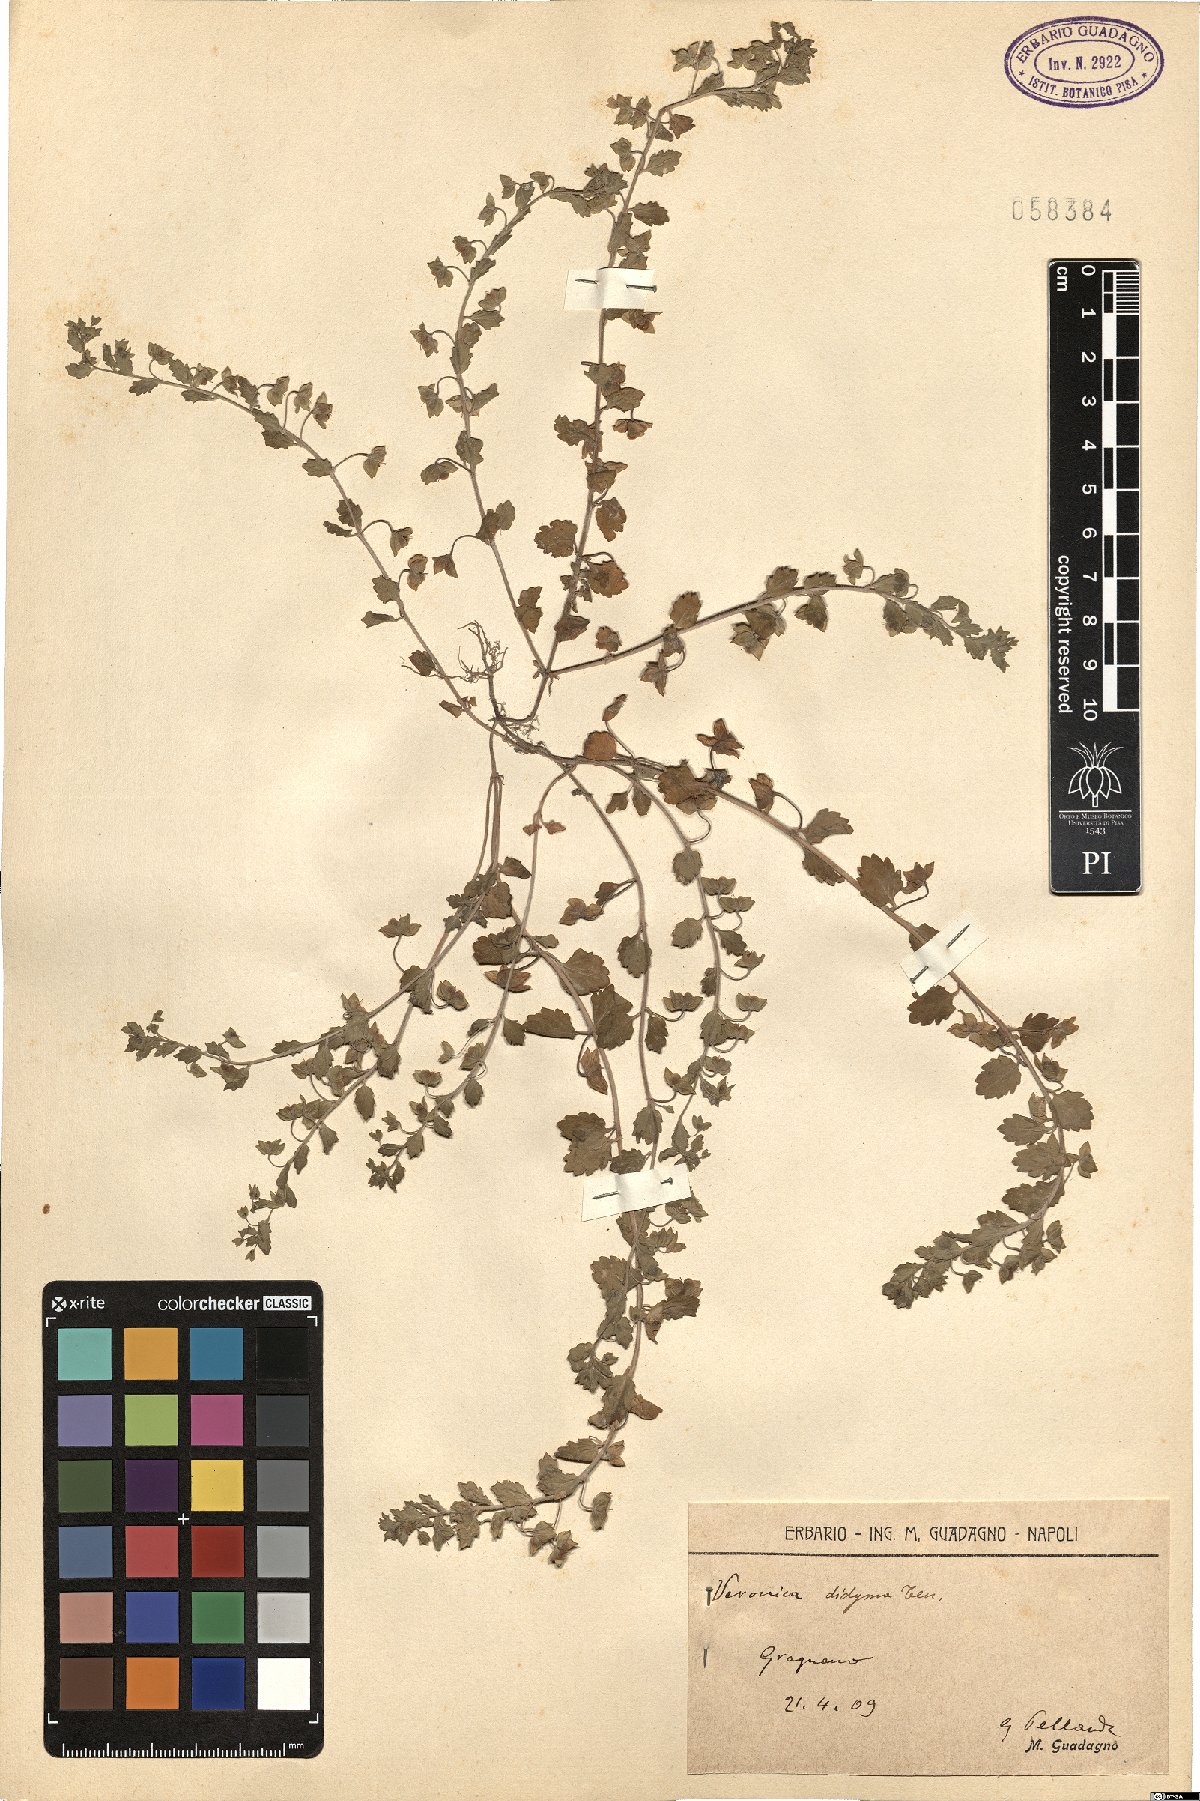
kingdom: Plantae
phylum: Tracheophyta
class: Magnoliopsida
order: Lamiales
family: Plantaginaceae
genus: Veronica
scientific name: Veronica polita
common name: Grey field-speedwell
